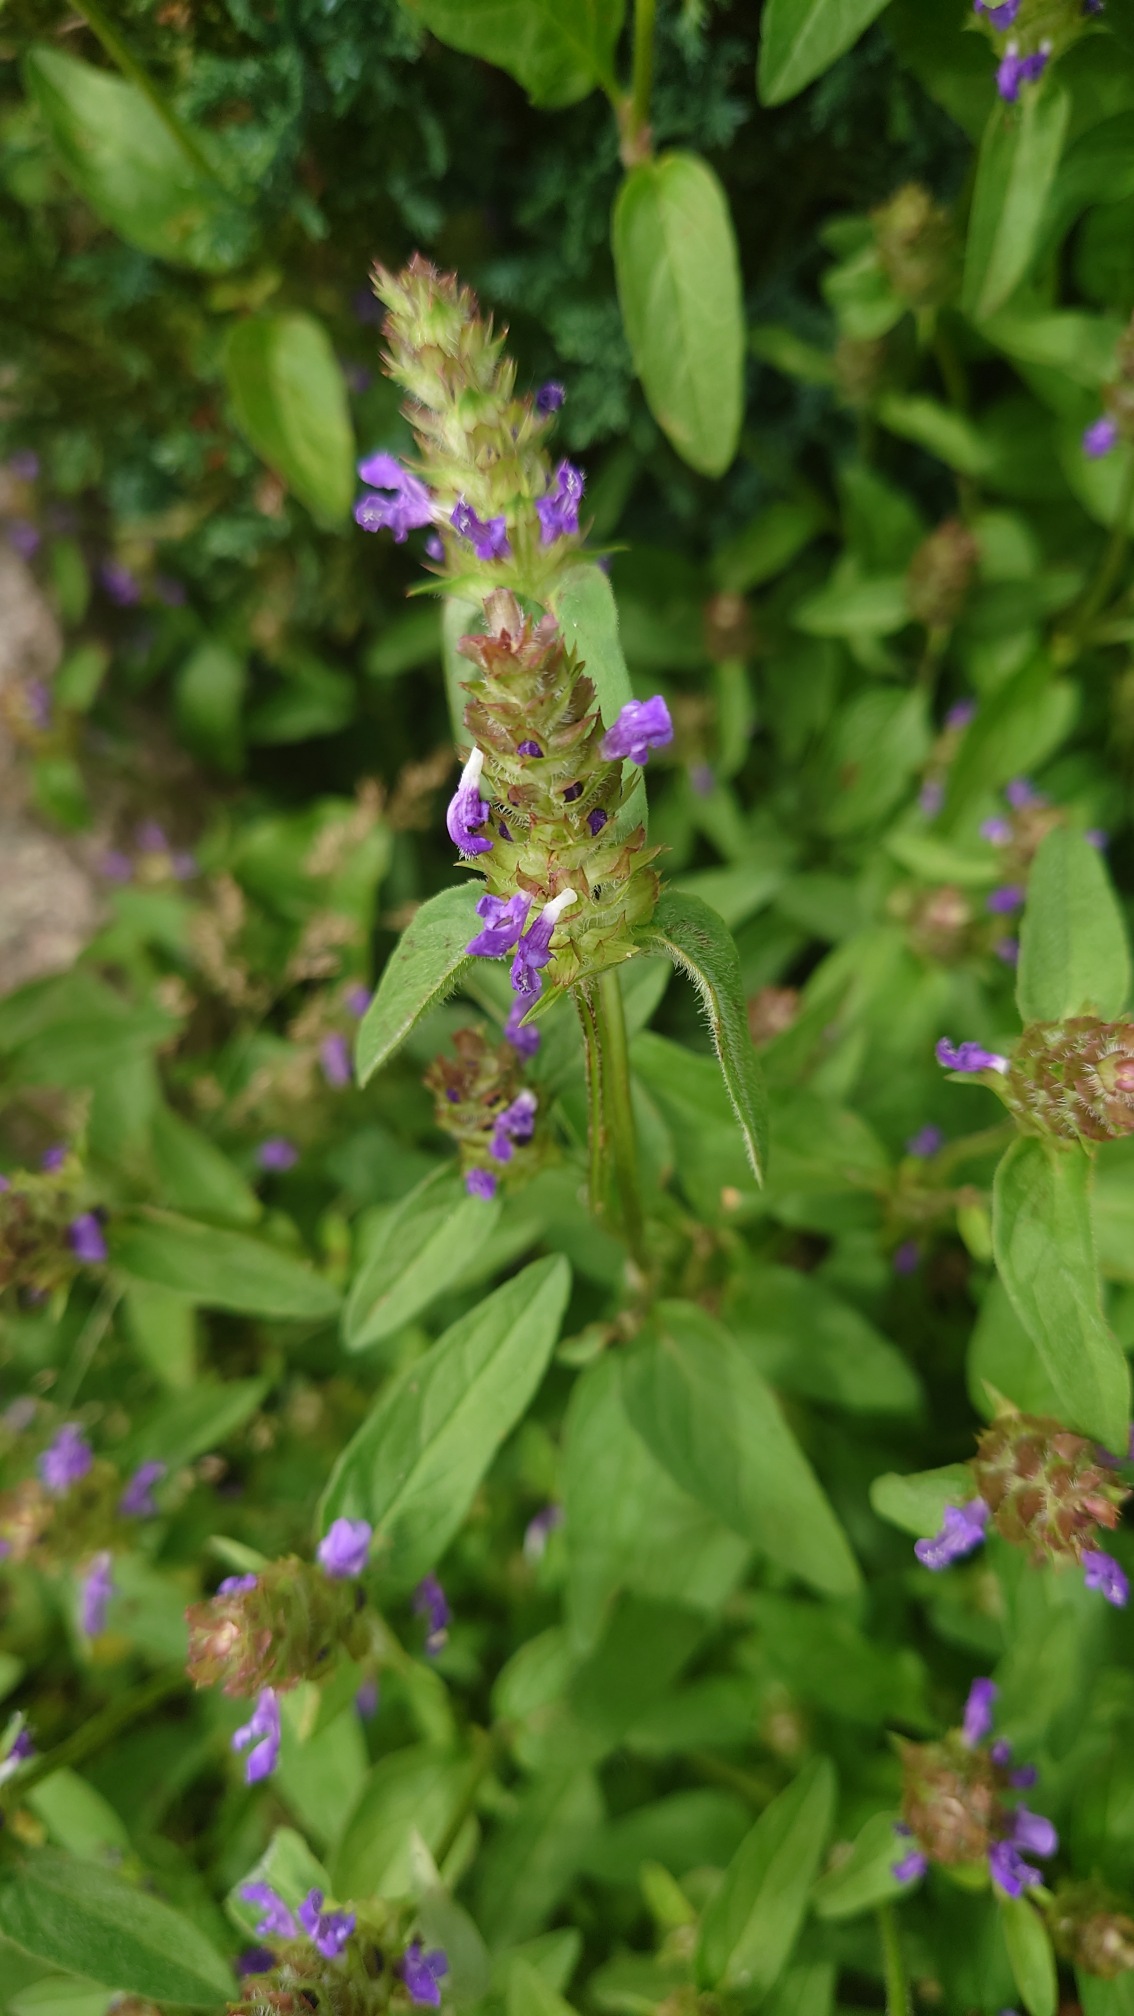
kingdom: Plantae
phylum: Tracheophyta
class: Magnoliopsida
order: Lamiales
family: Lamiaceae
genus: Prunella
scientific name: Prunella vulgaris
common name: Almindelig brunelle
